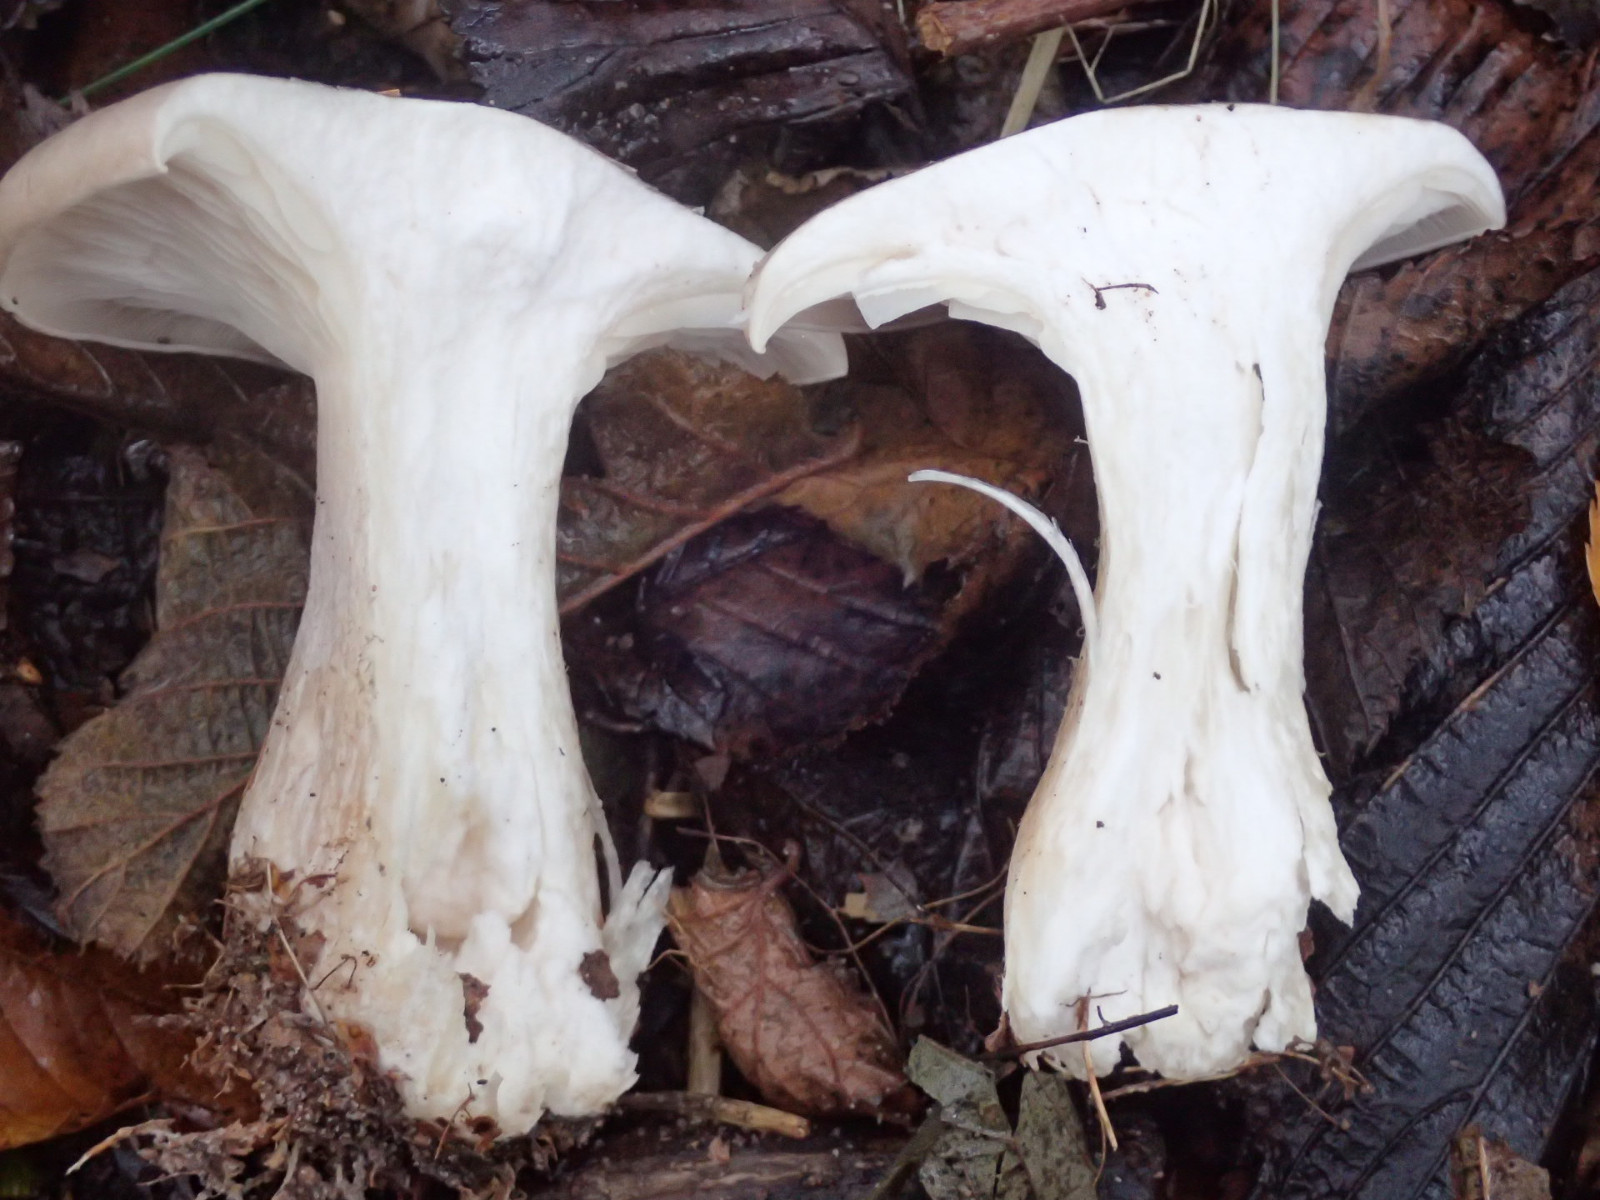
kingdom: Fungi
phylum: Basidiomycota
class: Agaricomycetes
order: Agaricales
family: Tricholomataceae
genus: Clitocybe
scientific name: Clitocybe nebularis
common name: tåge-tragthat
